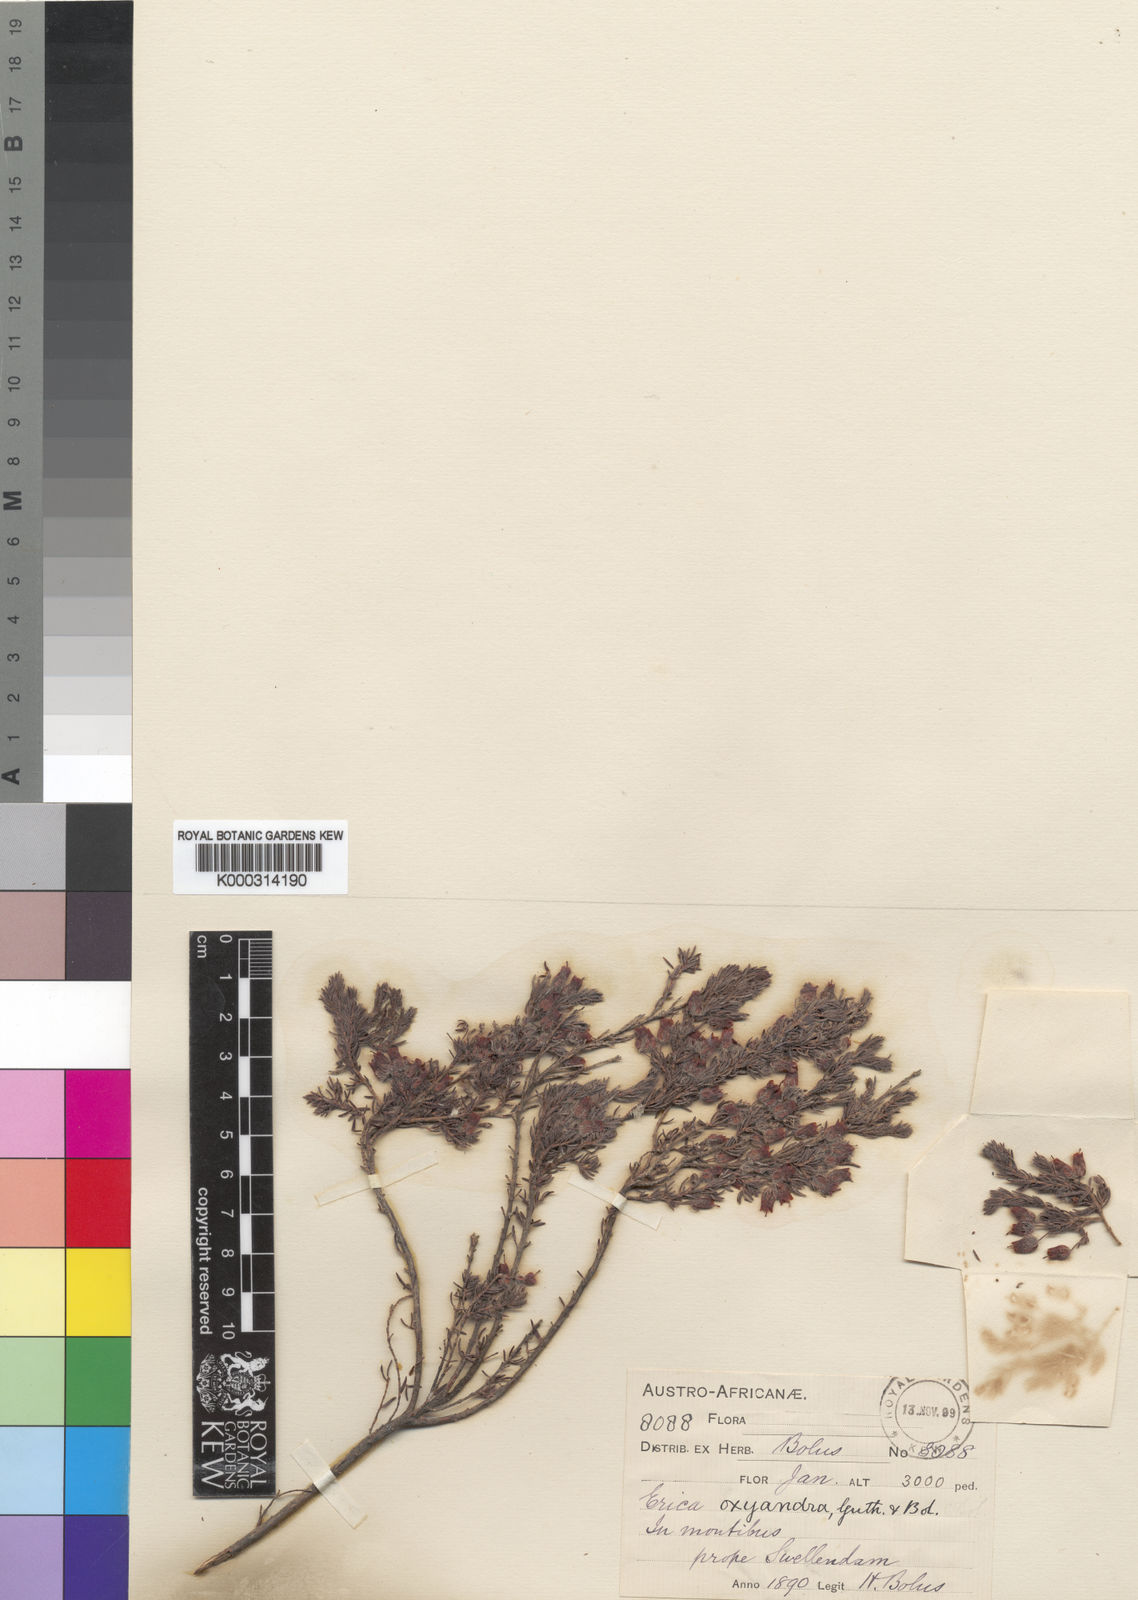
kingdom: Plantae
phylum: Tracheophyta
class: Magnoliopsida
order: Ericales
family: Ericaceae
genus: Erica
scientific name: Erica oxyandra
